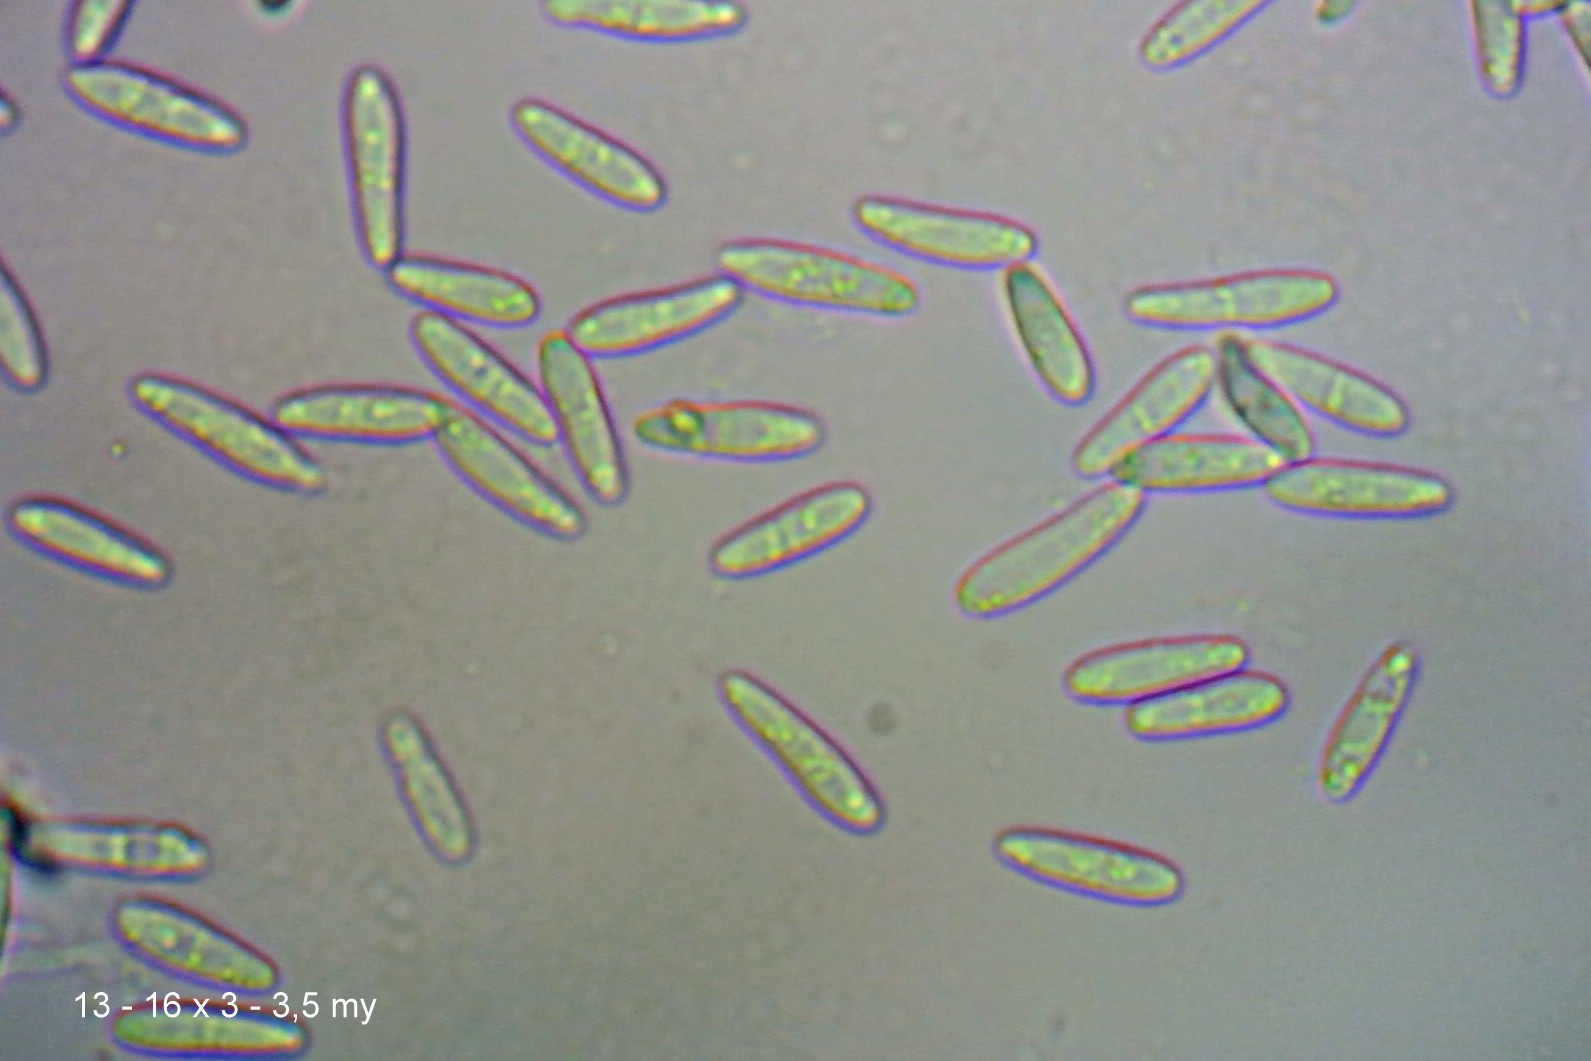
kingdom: Fungi
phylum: Ascomycota
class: Leotiomycetes
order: Helotiales
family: Hyaloscyphaceae
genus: Roseodiscus
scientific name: Roseodiscus formosus
